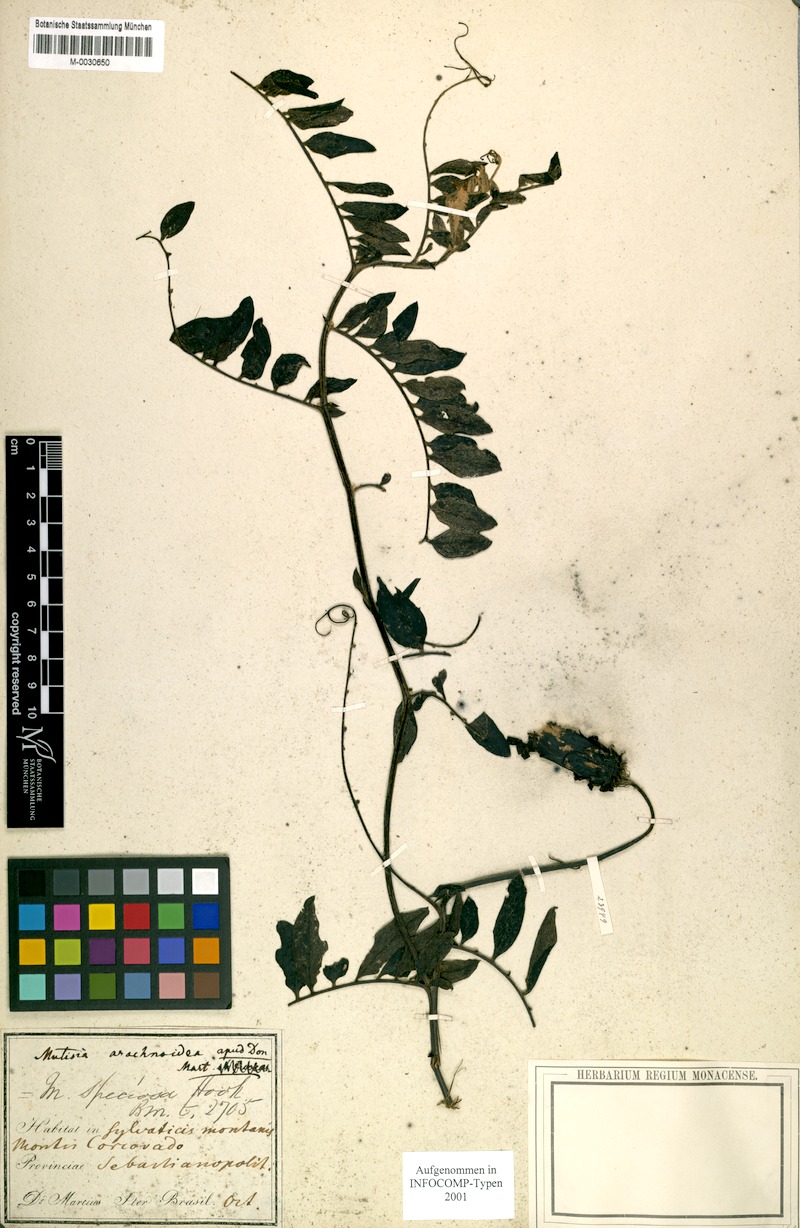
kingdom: Plantae
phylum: Tracheophyta
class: Magnoliopsida
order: Asterales
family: Asteraceae
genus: Mutisia
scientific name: Mutisia speciosa
